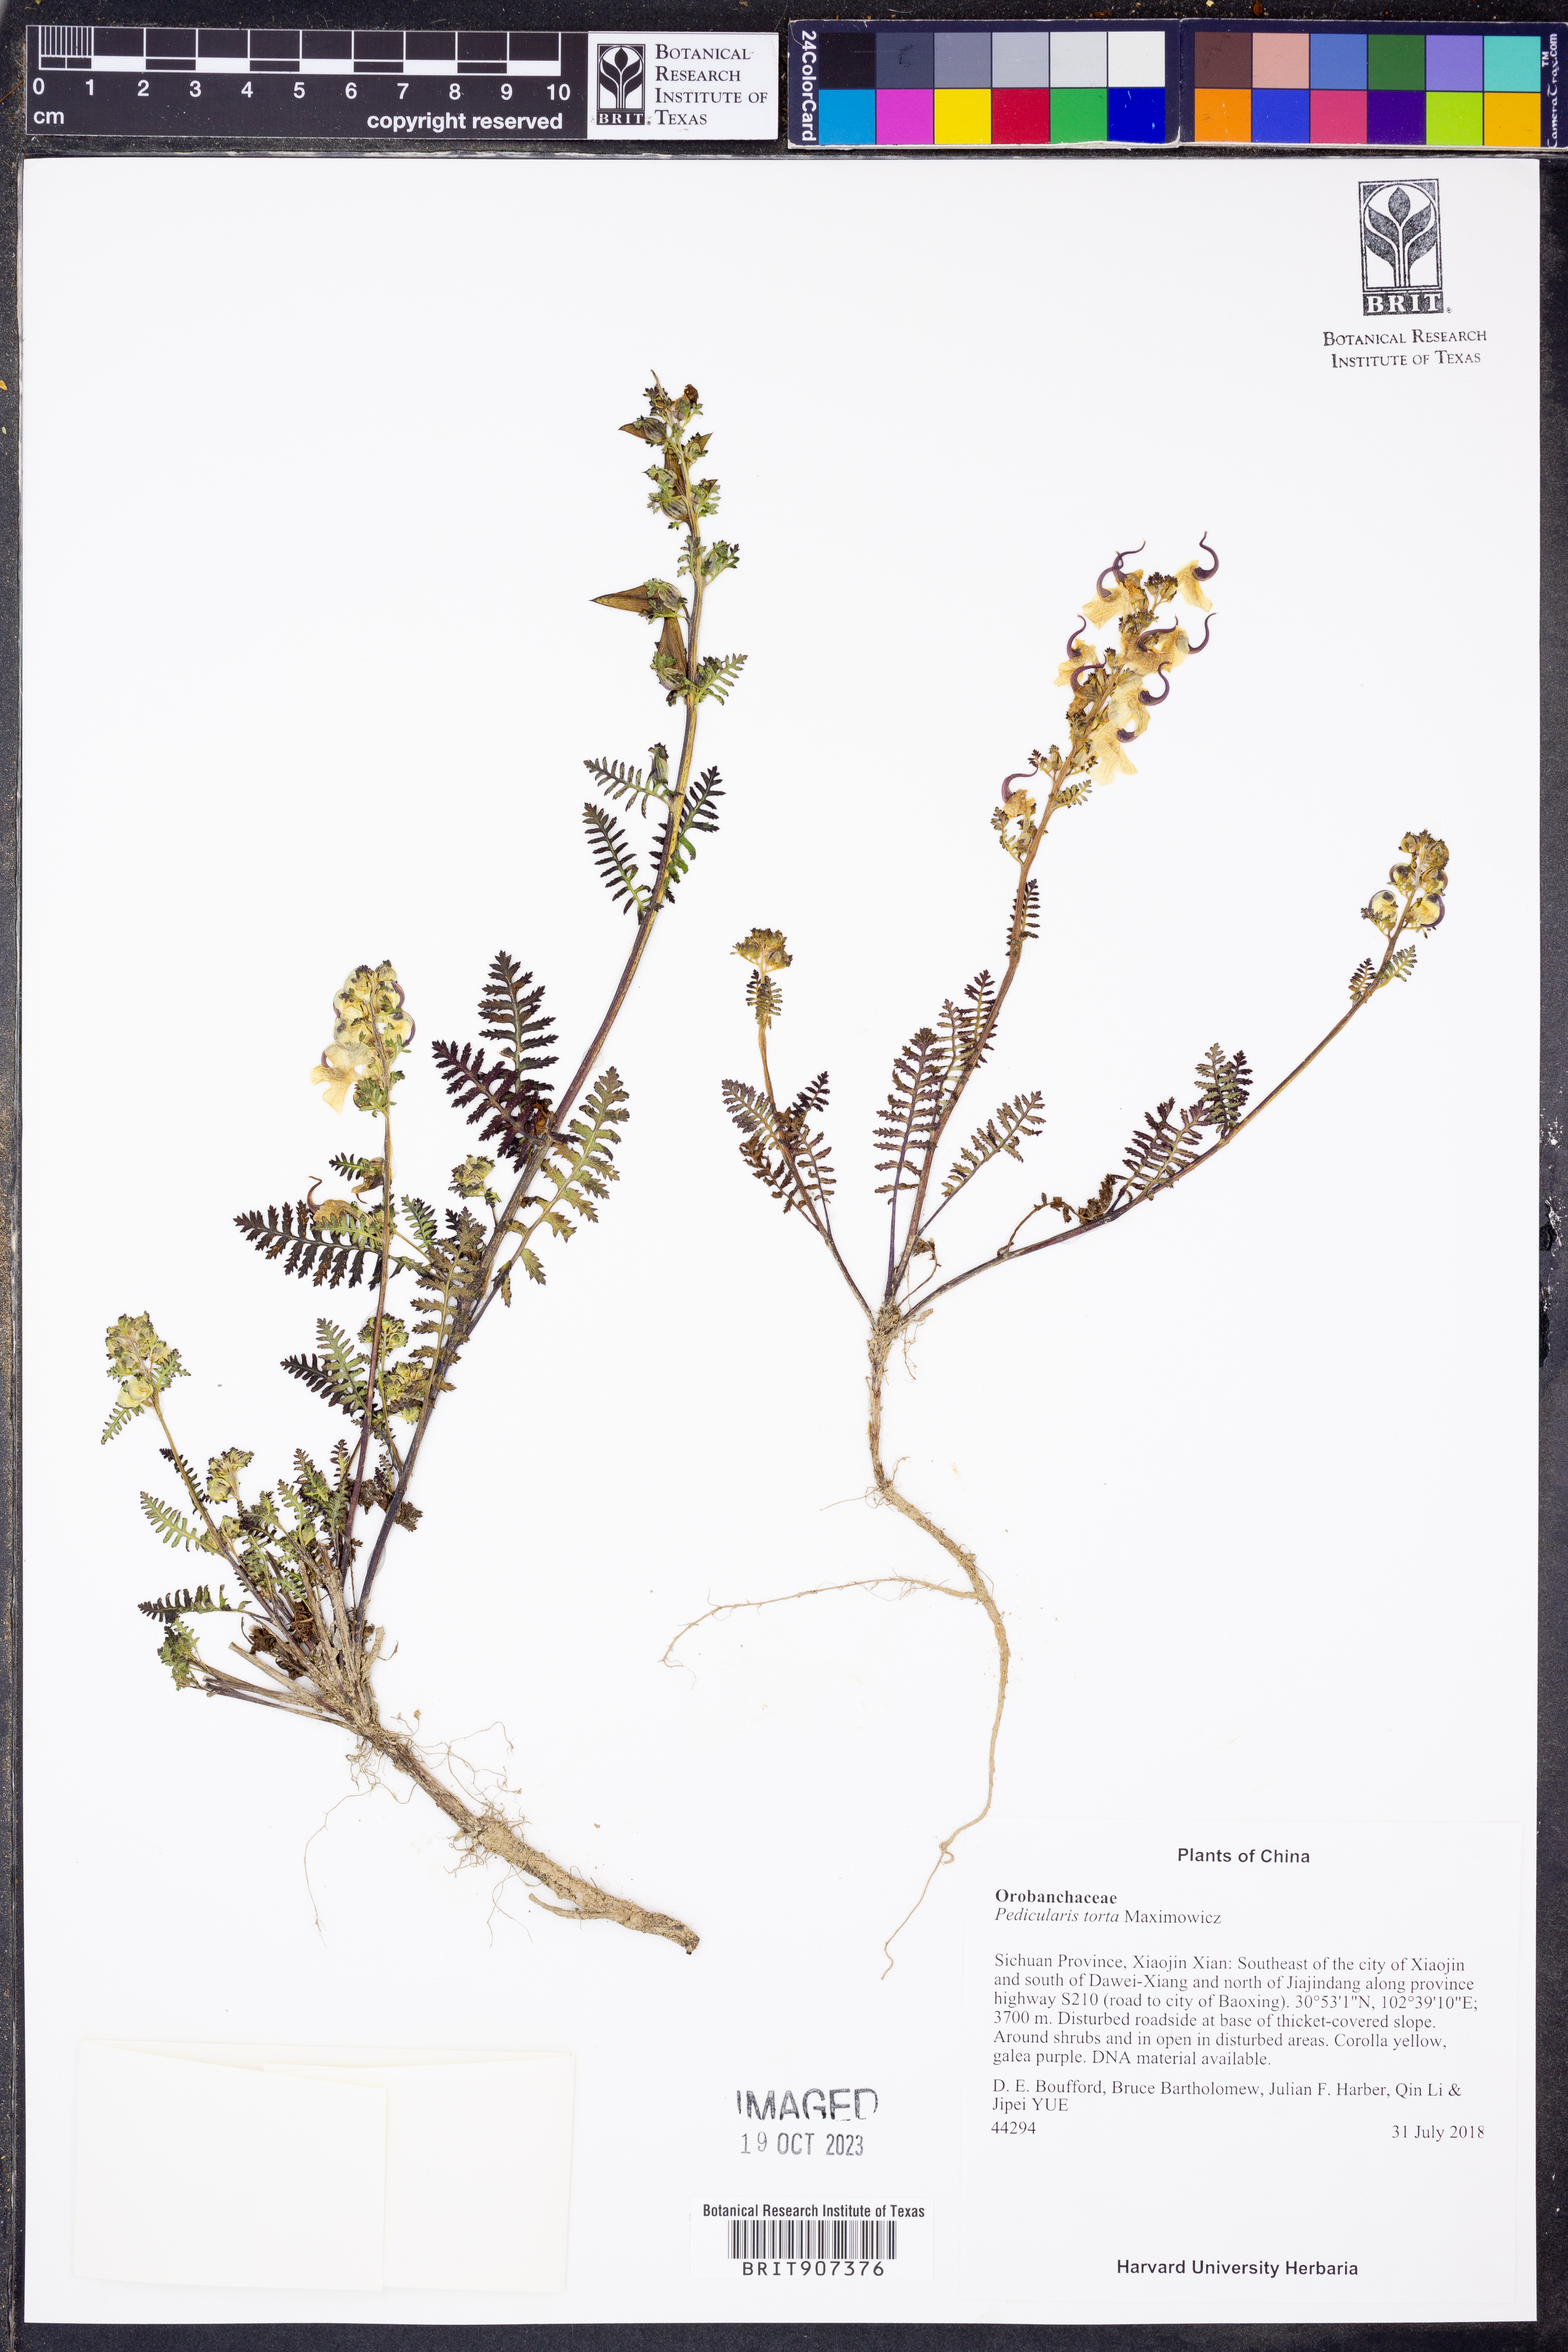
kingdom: Plantae
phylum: Tracheophyta
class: Magnoliopsida
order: Lamiales
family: Orobanchaceae
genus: Pedicularis
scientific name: Pedicularis torta
